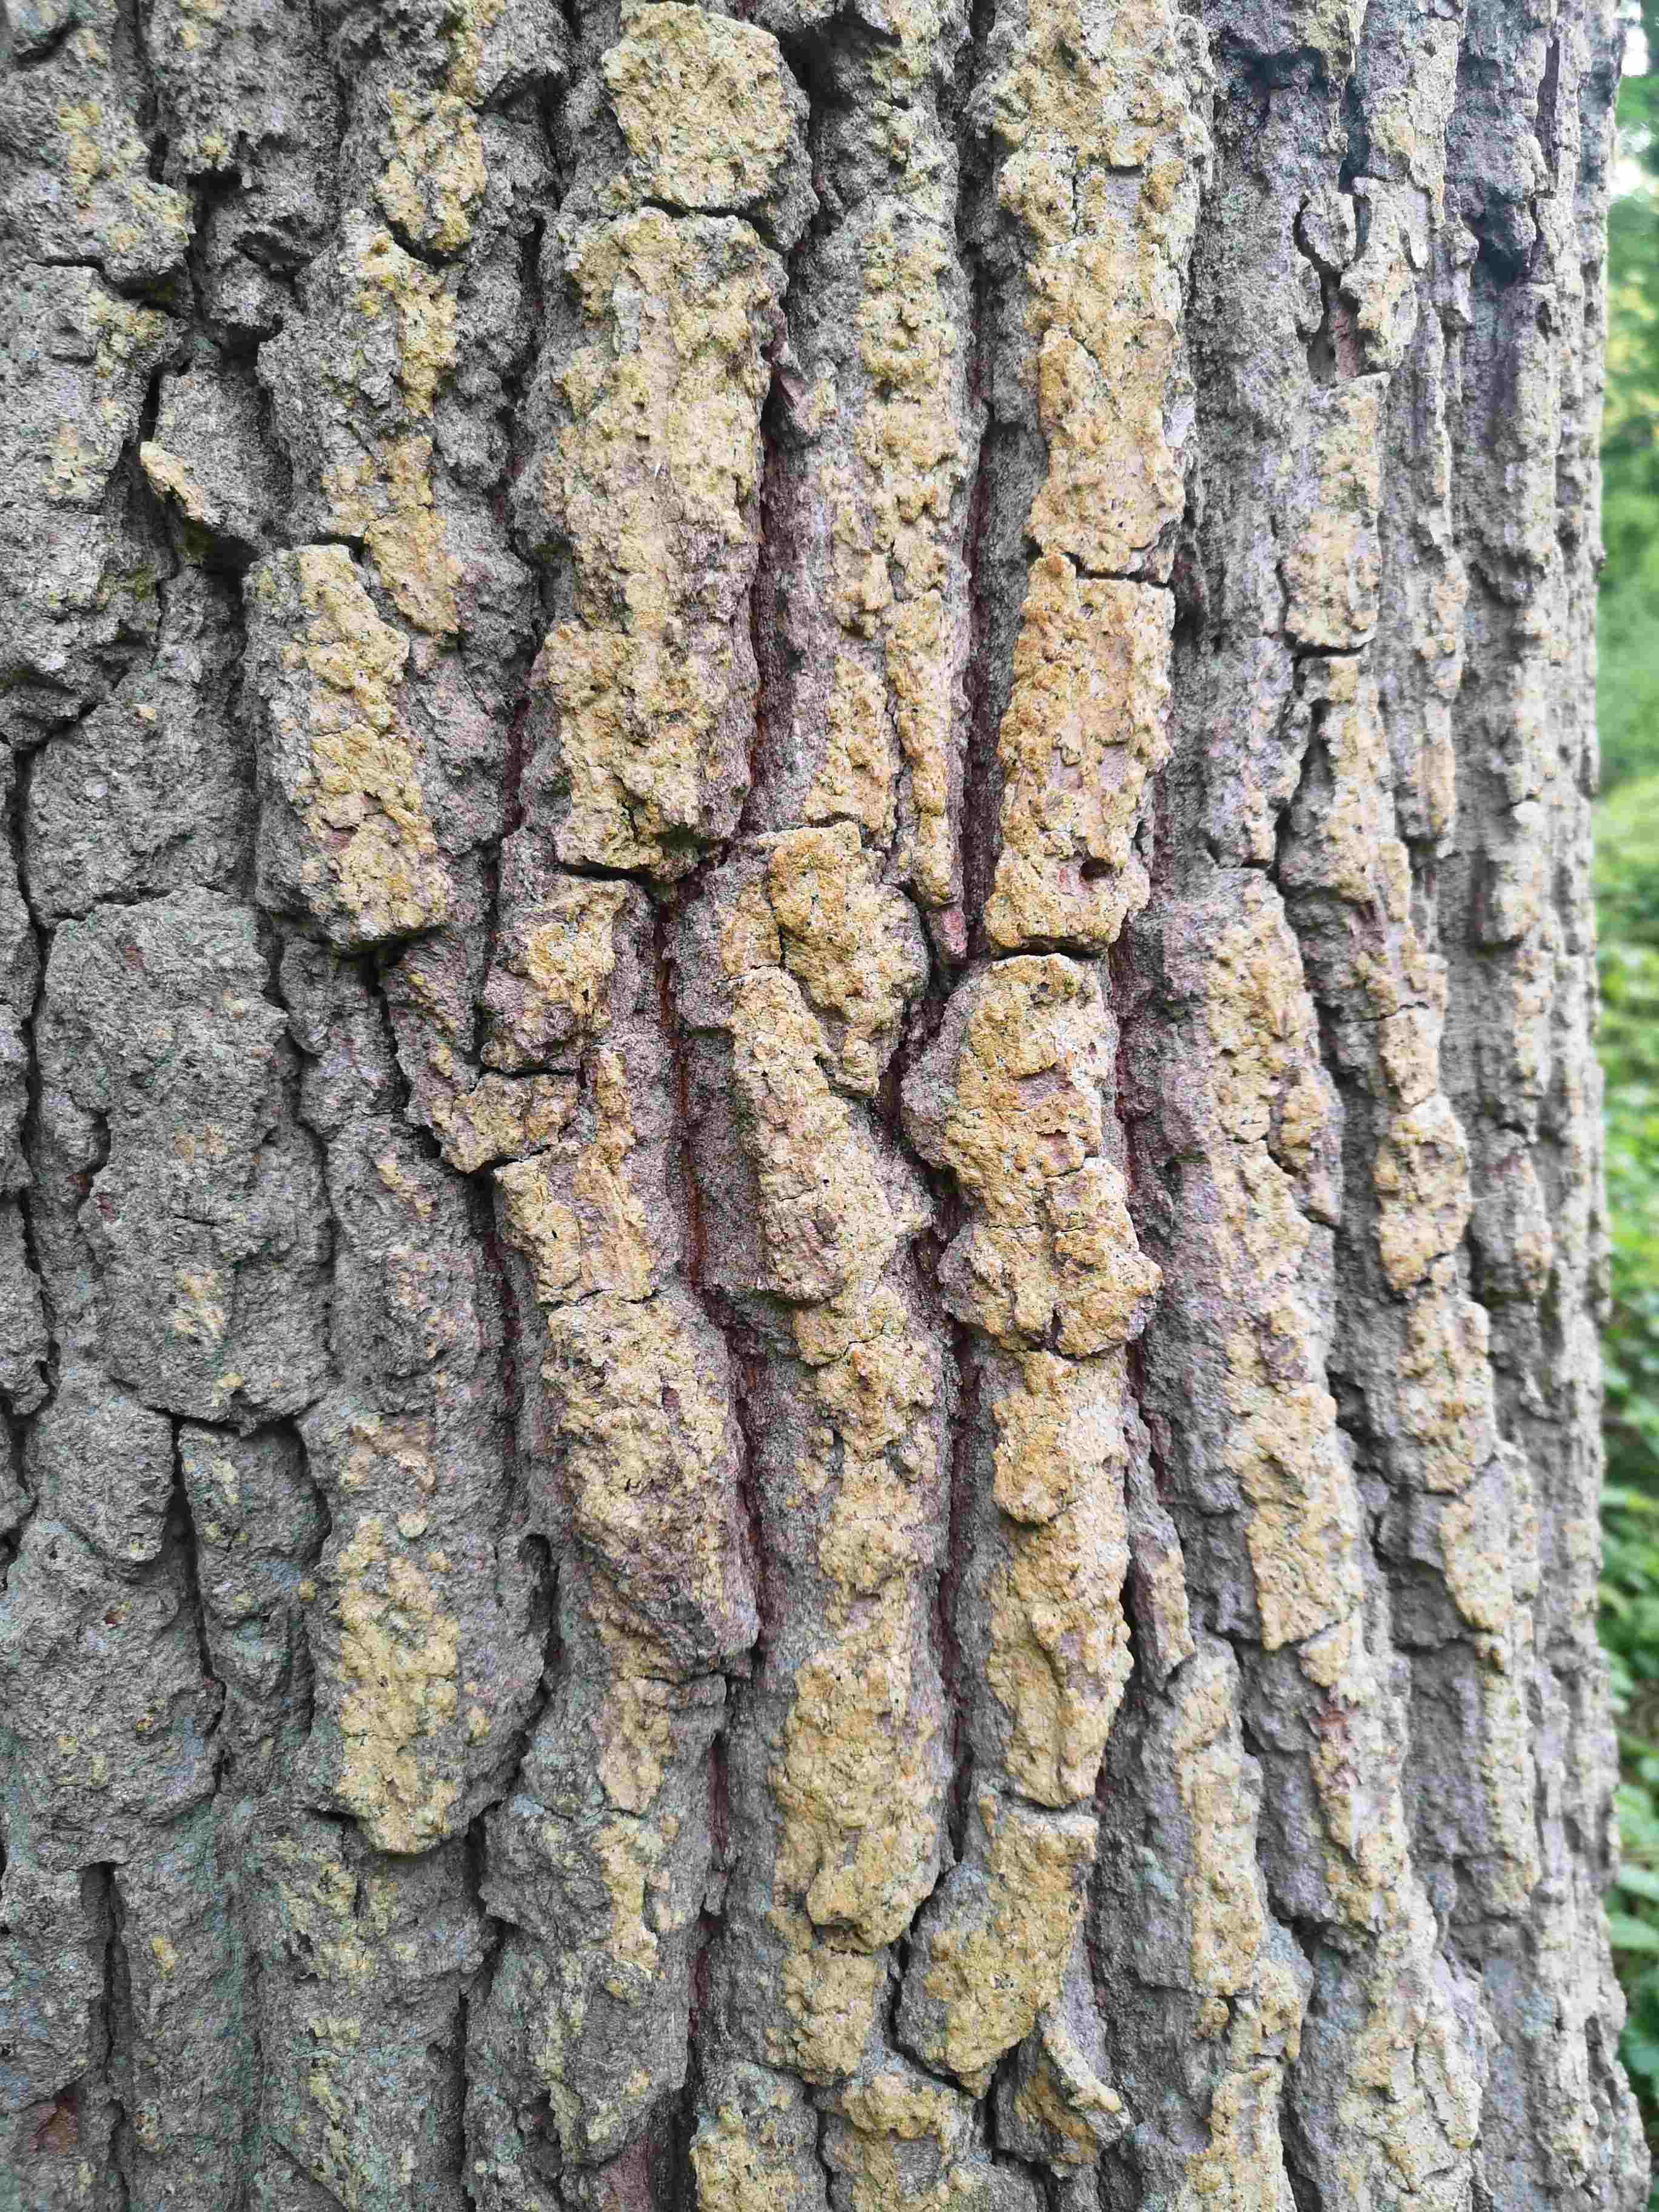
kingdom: Fungi
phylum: Ascomycota
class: Coniocybomycetes
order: Coniocybales
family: Coniocybaceae
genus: Chaenotheca
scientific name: Chaenotheca ferruginea
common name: rustbrun knappenålslav
